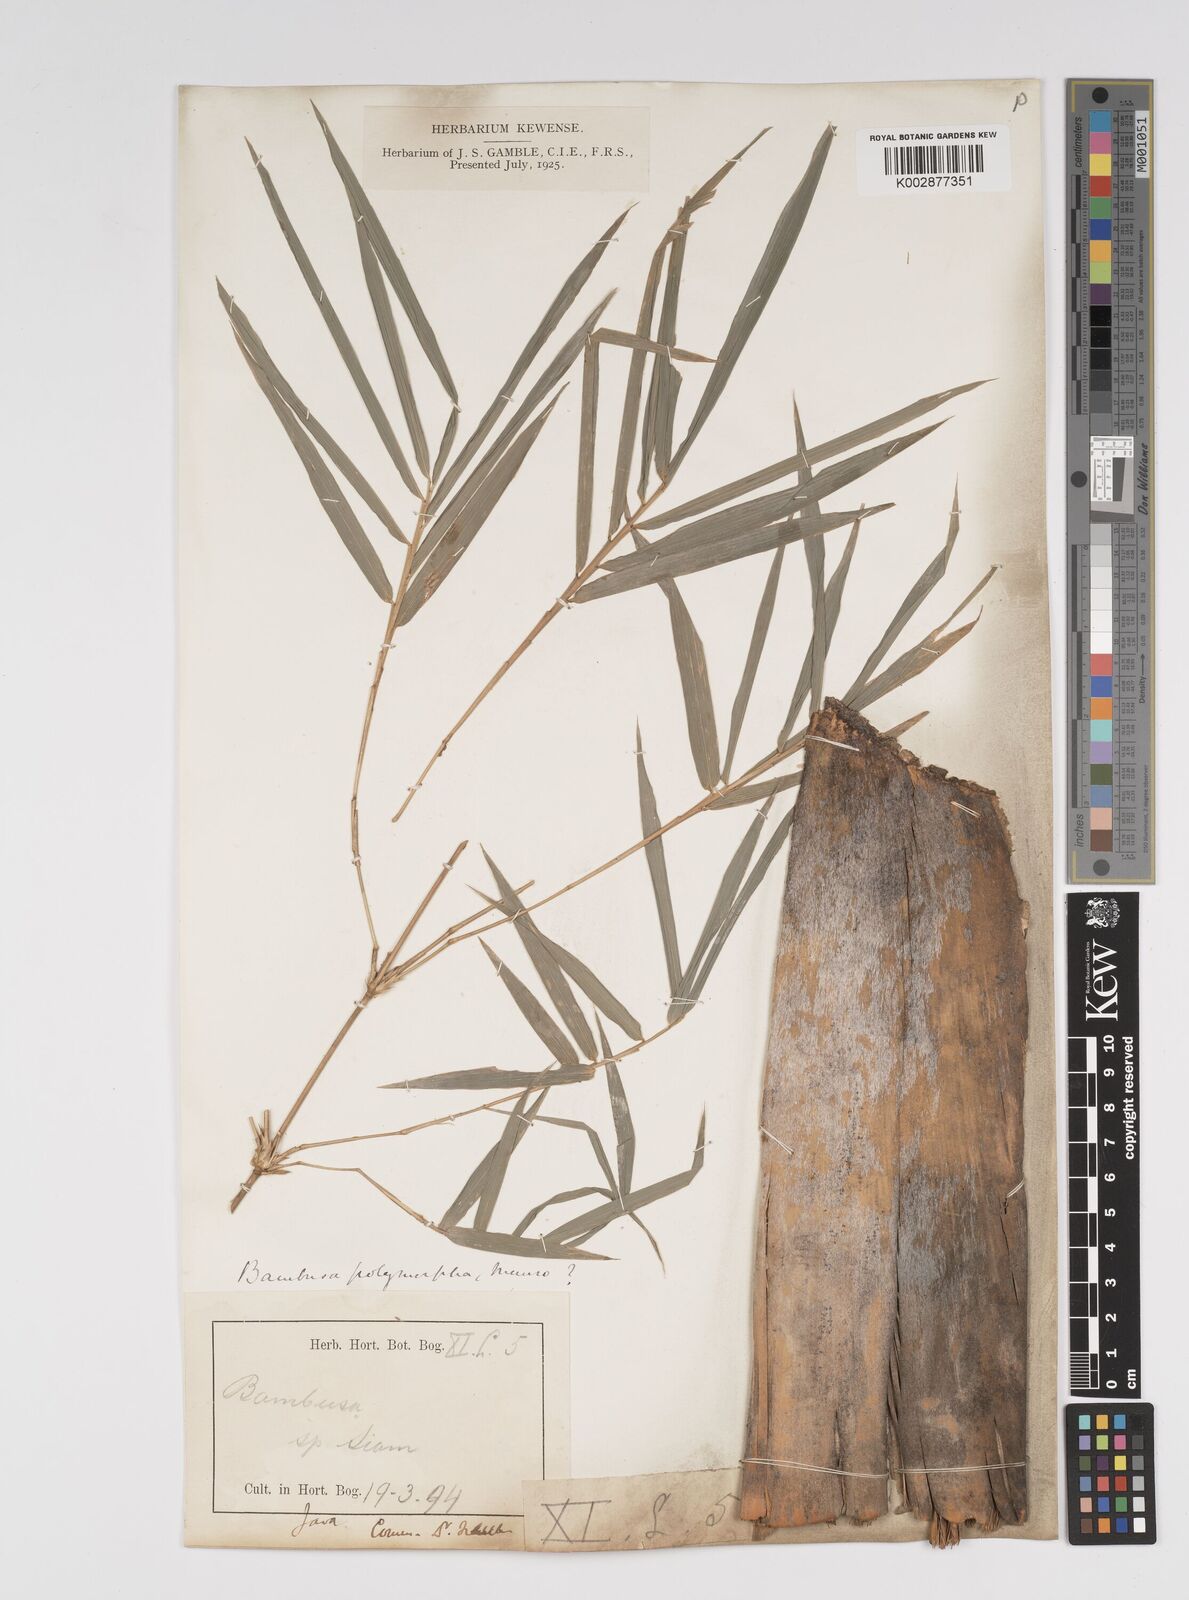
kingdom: Plantae
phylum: Tracheophyta
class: Liliopsida
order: Poales
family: Poaceae
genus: Bambusa
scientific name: Bambusa polymorpha
